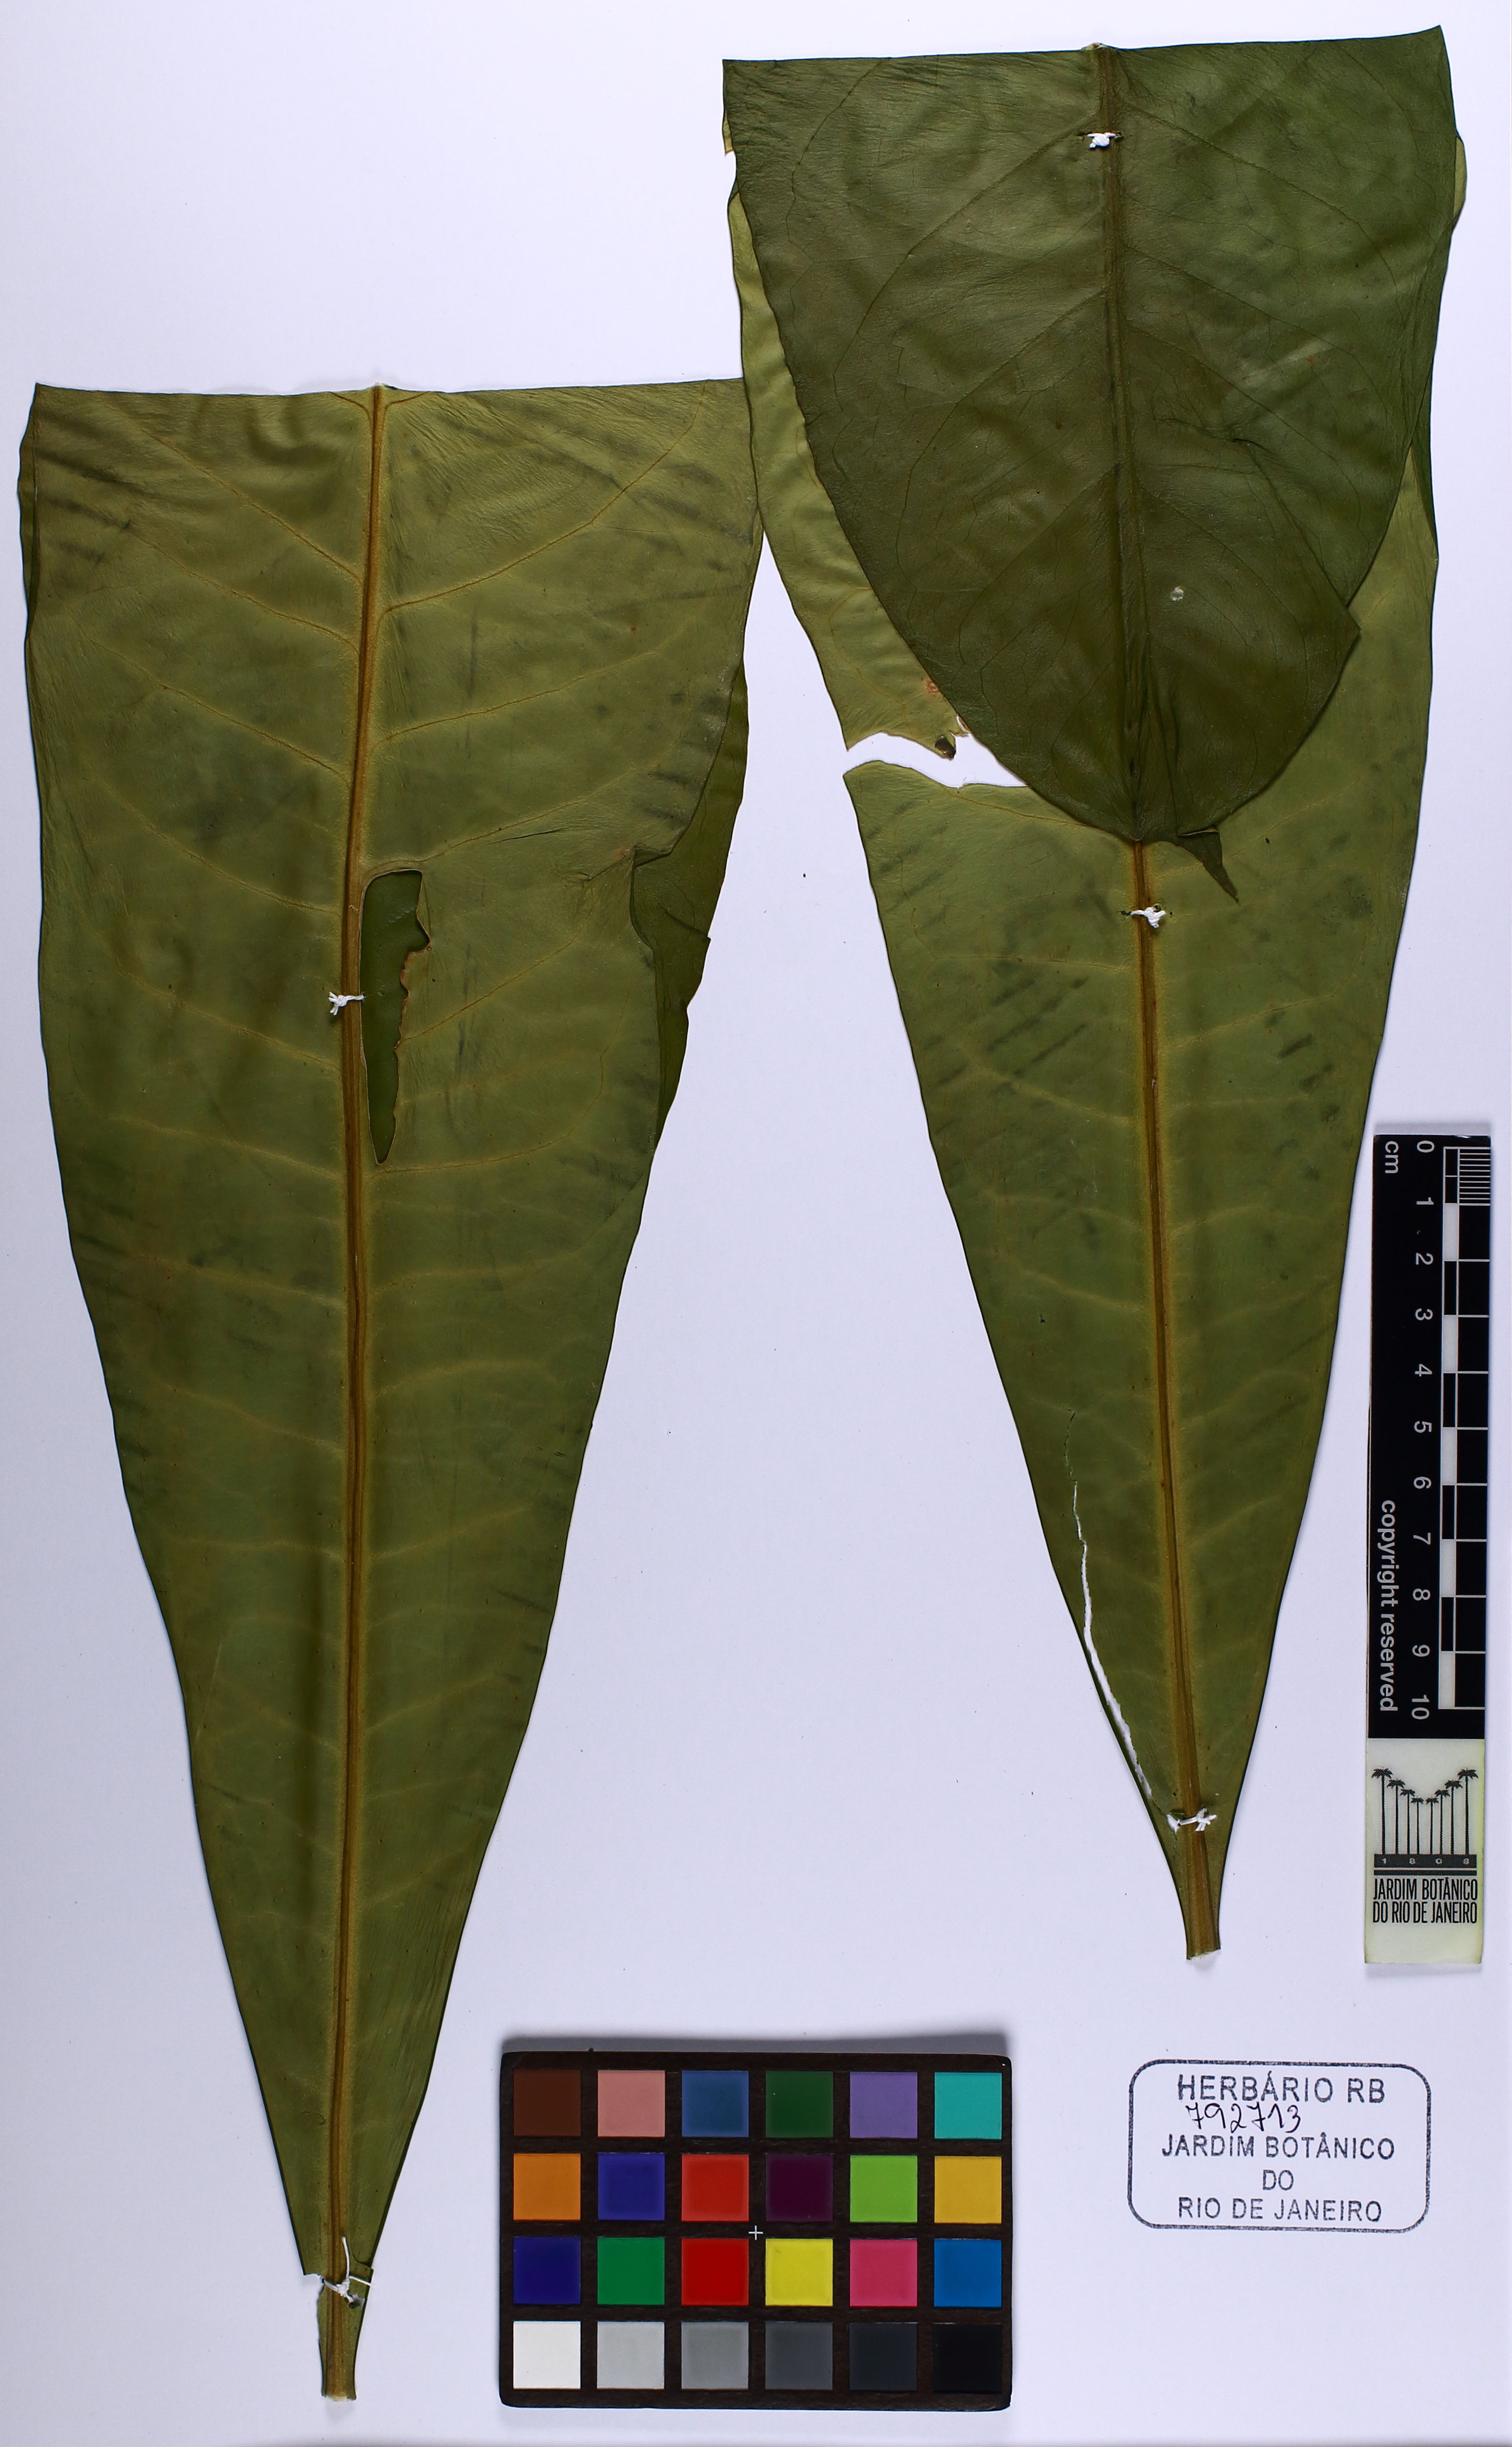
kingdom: Plantae
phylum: Tracheophyta
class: Magnoliopsida
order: Sapindales
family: Rutaceae
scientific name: Rutaceae
